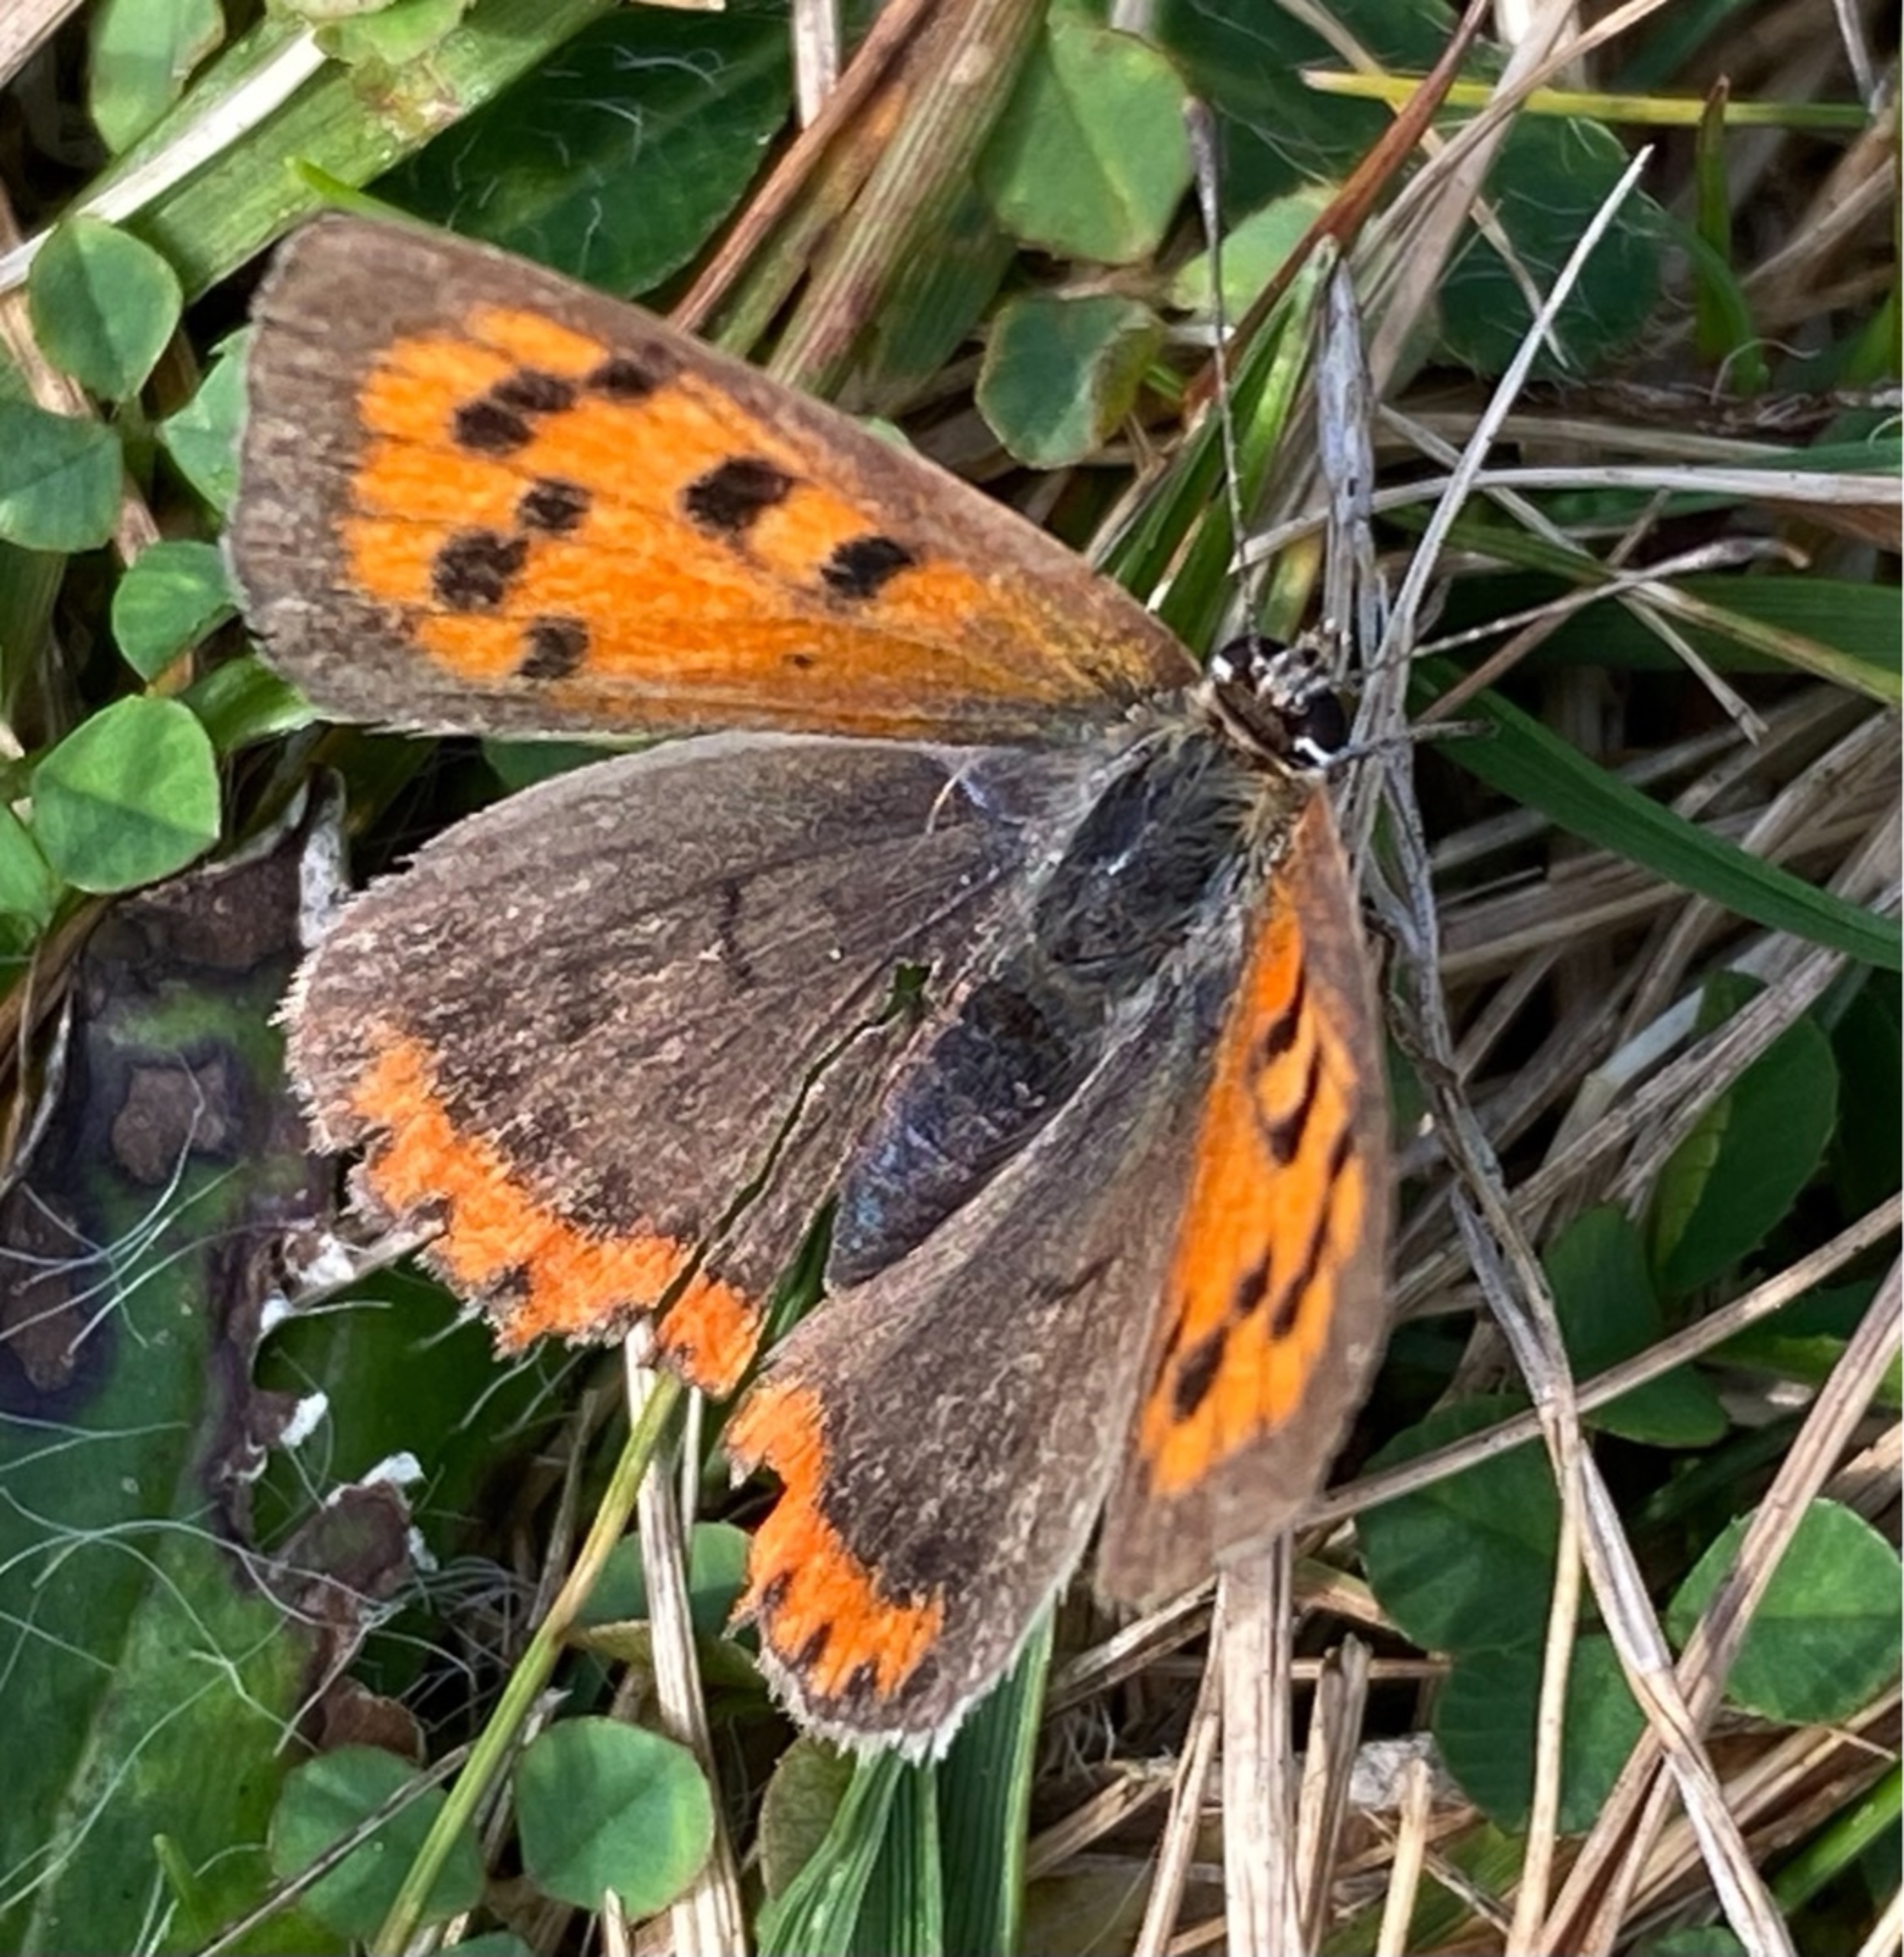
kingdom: Animalia
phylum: Arthropoda
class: Insecta
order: Lepidoptera
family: Lycaenidae
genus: Lycaena
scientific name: Lycaena phlaeas
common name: Lille ildfugl
